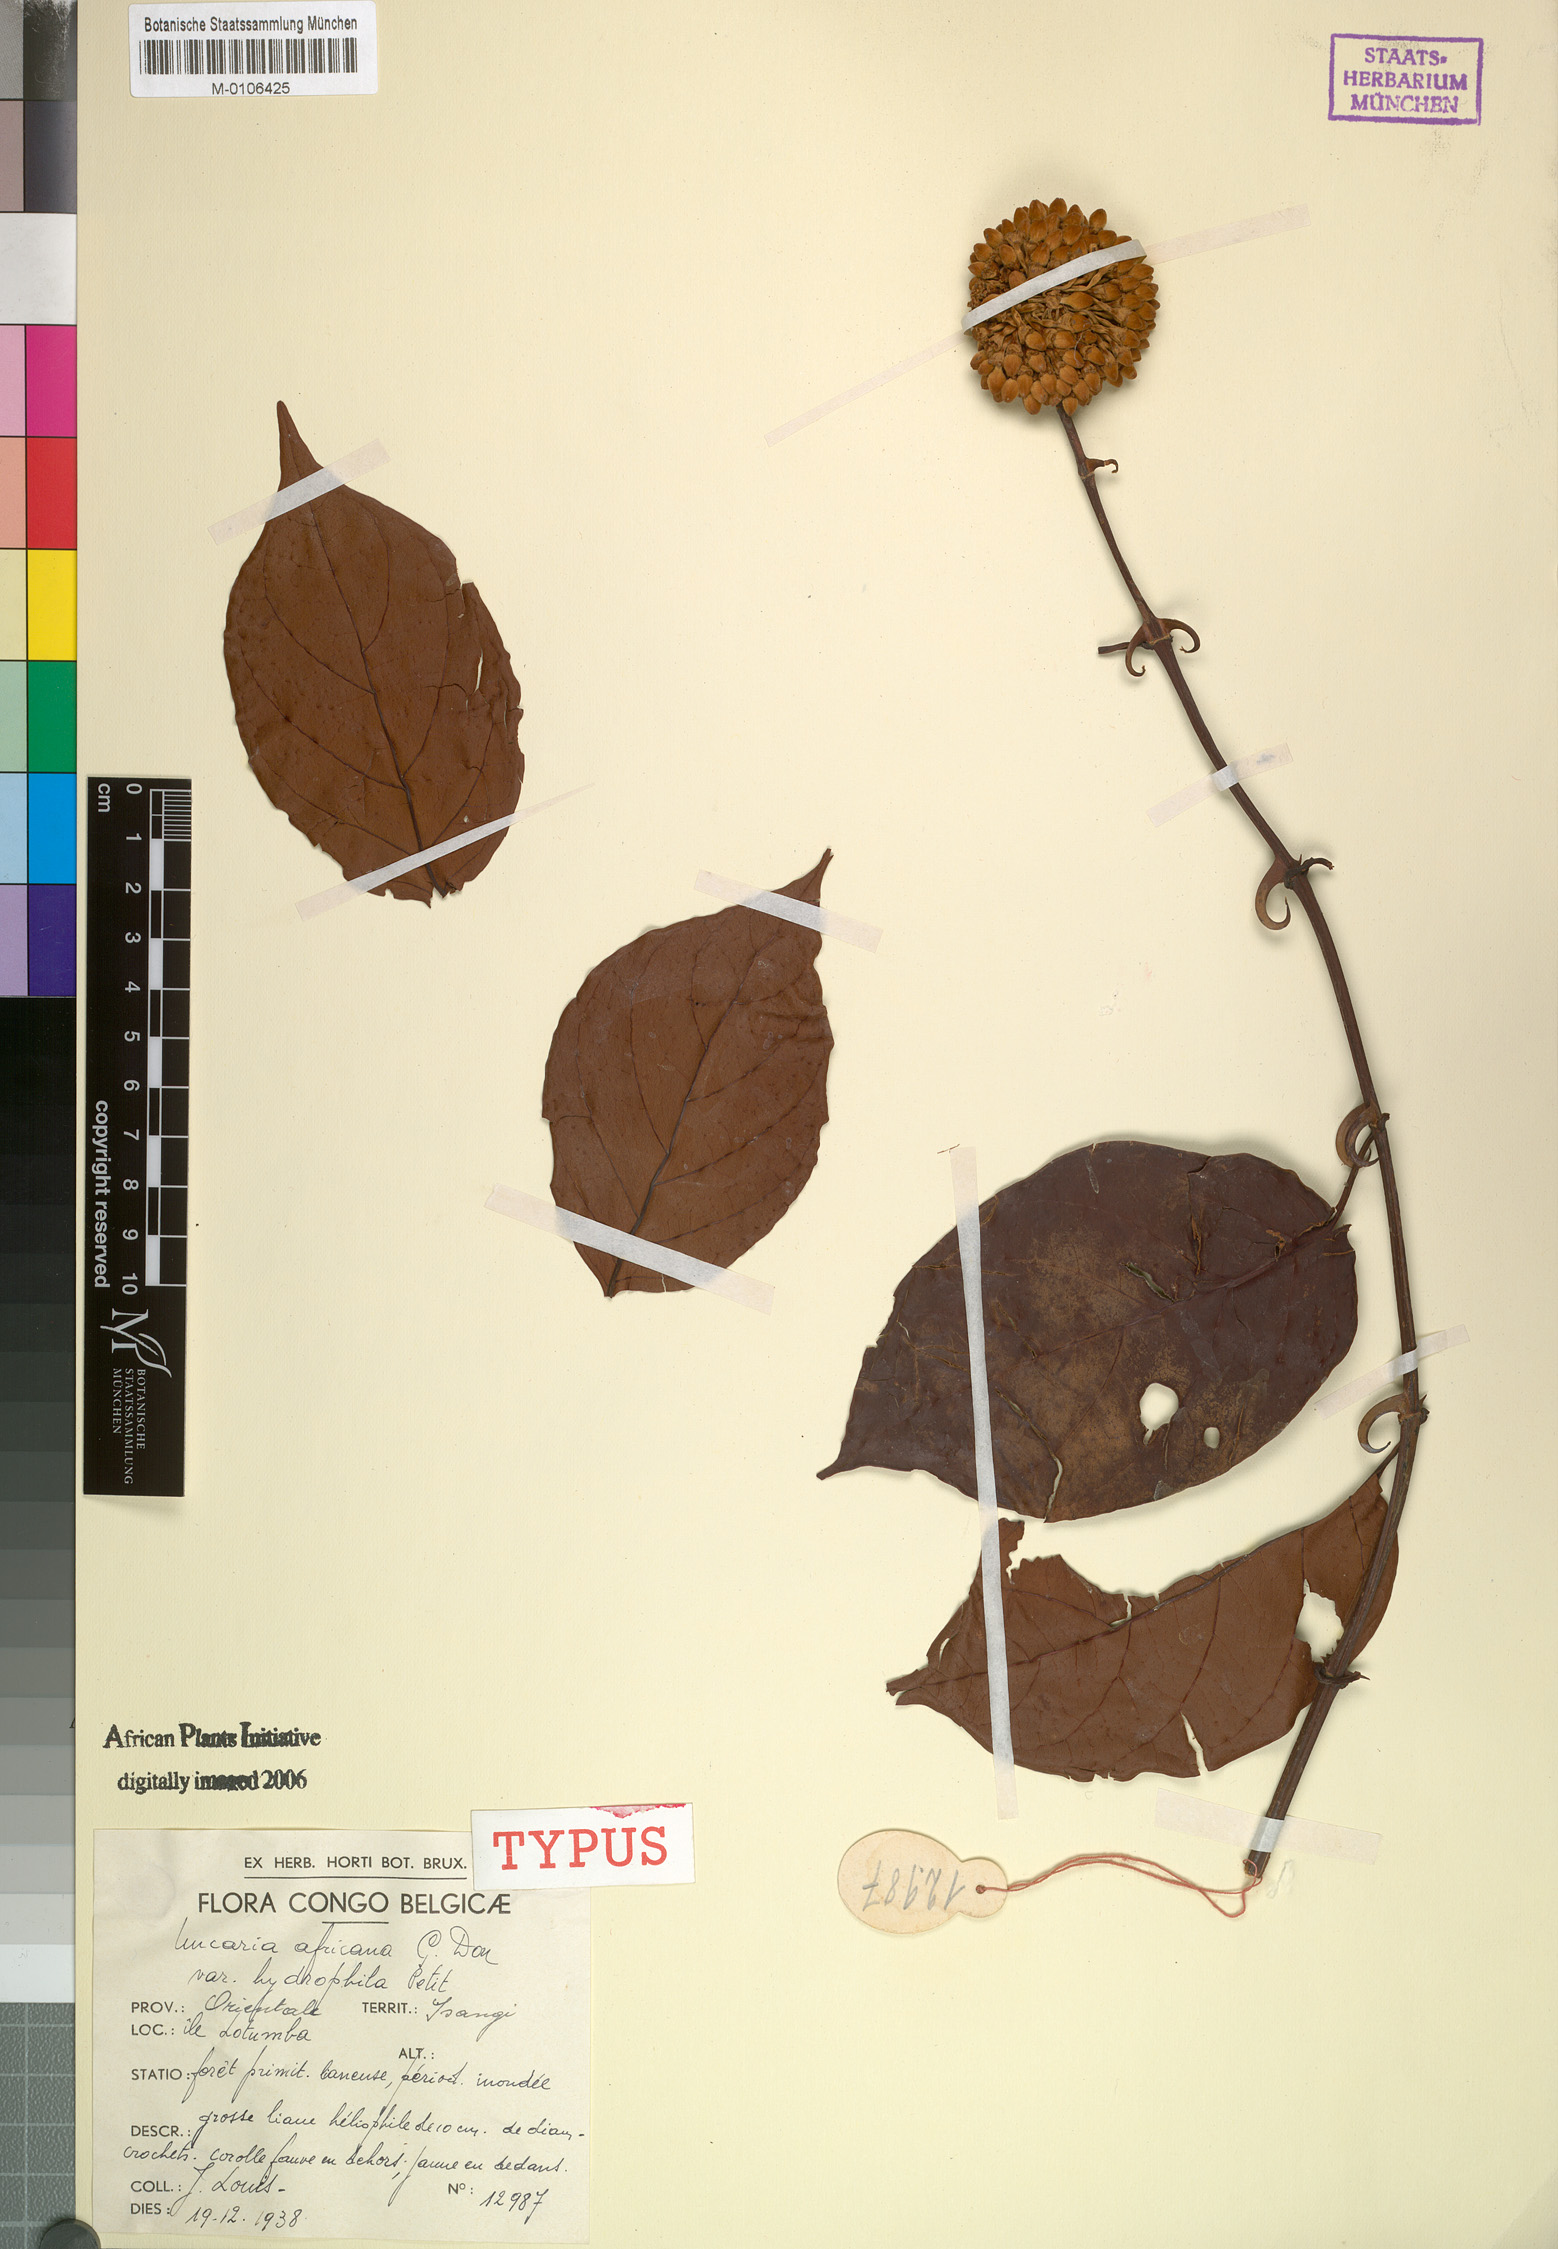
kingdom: Plantae
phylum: Tracheophyta
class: Magnoliopsida
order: Gentianales
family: Rubiaceae
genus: Uncaria
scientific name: Uncaria africana
